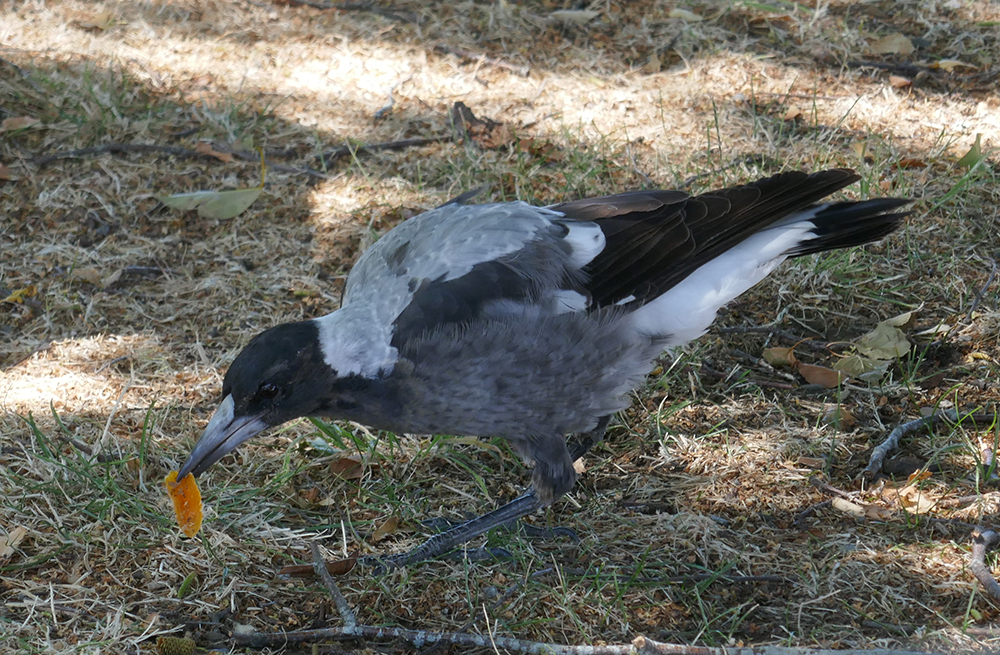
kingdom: Animalia
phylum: Chordata
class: Aves
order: Passeriformes
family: Cracticidae
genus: Gymnorhina
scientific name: Gymnorhina tibicen
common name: Australian magpie
